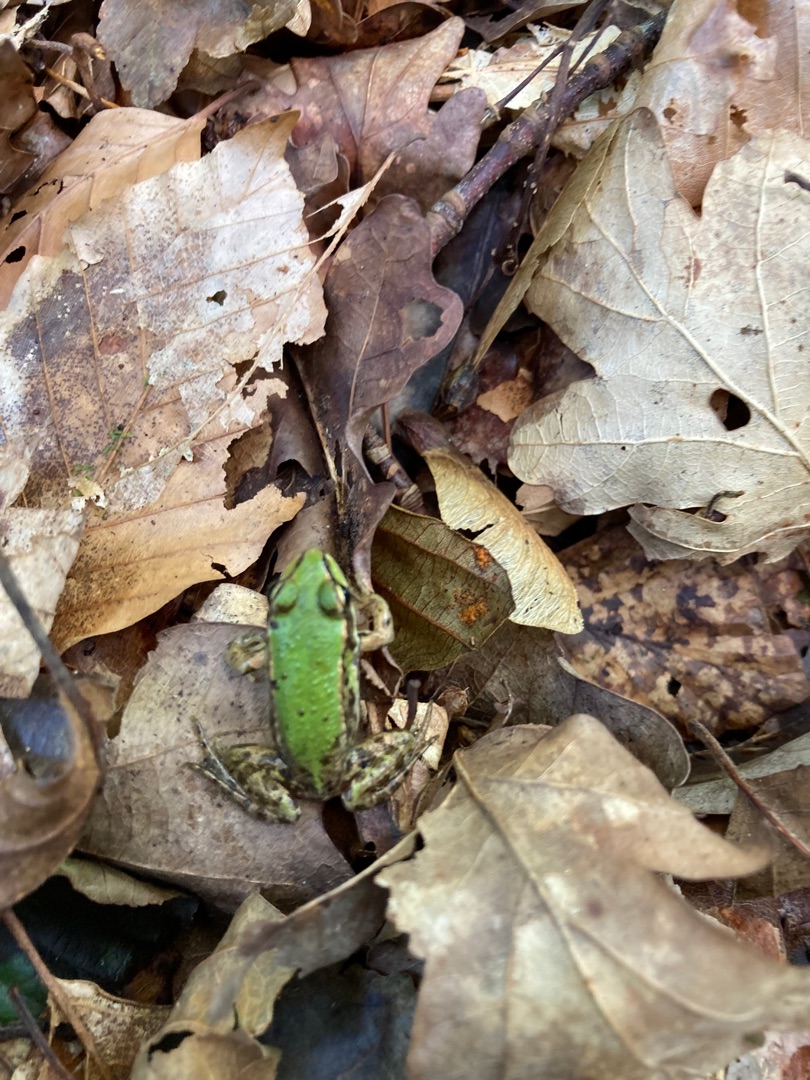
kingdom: Animalia
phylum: Chordata
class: Amphibia
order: Anura
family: Ranidae
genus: Pelophylax
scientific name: Pelophylax lessonae
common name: Grøn frø
